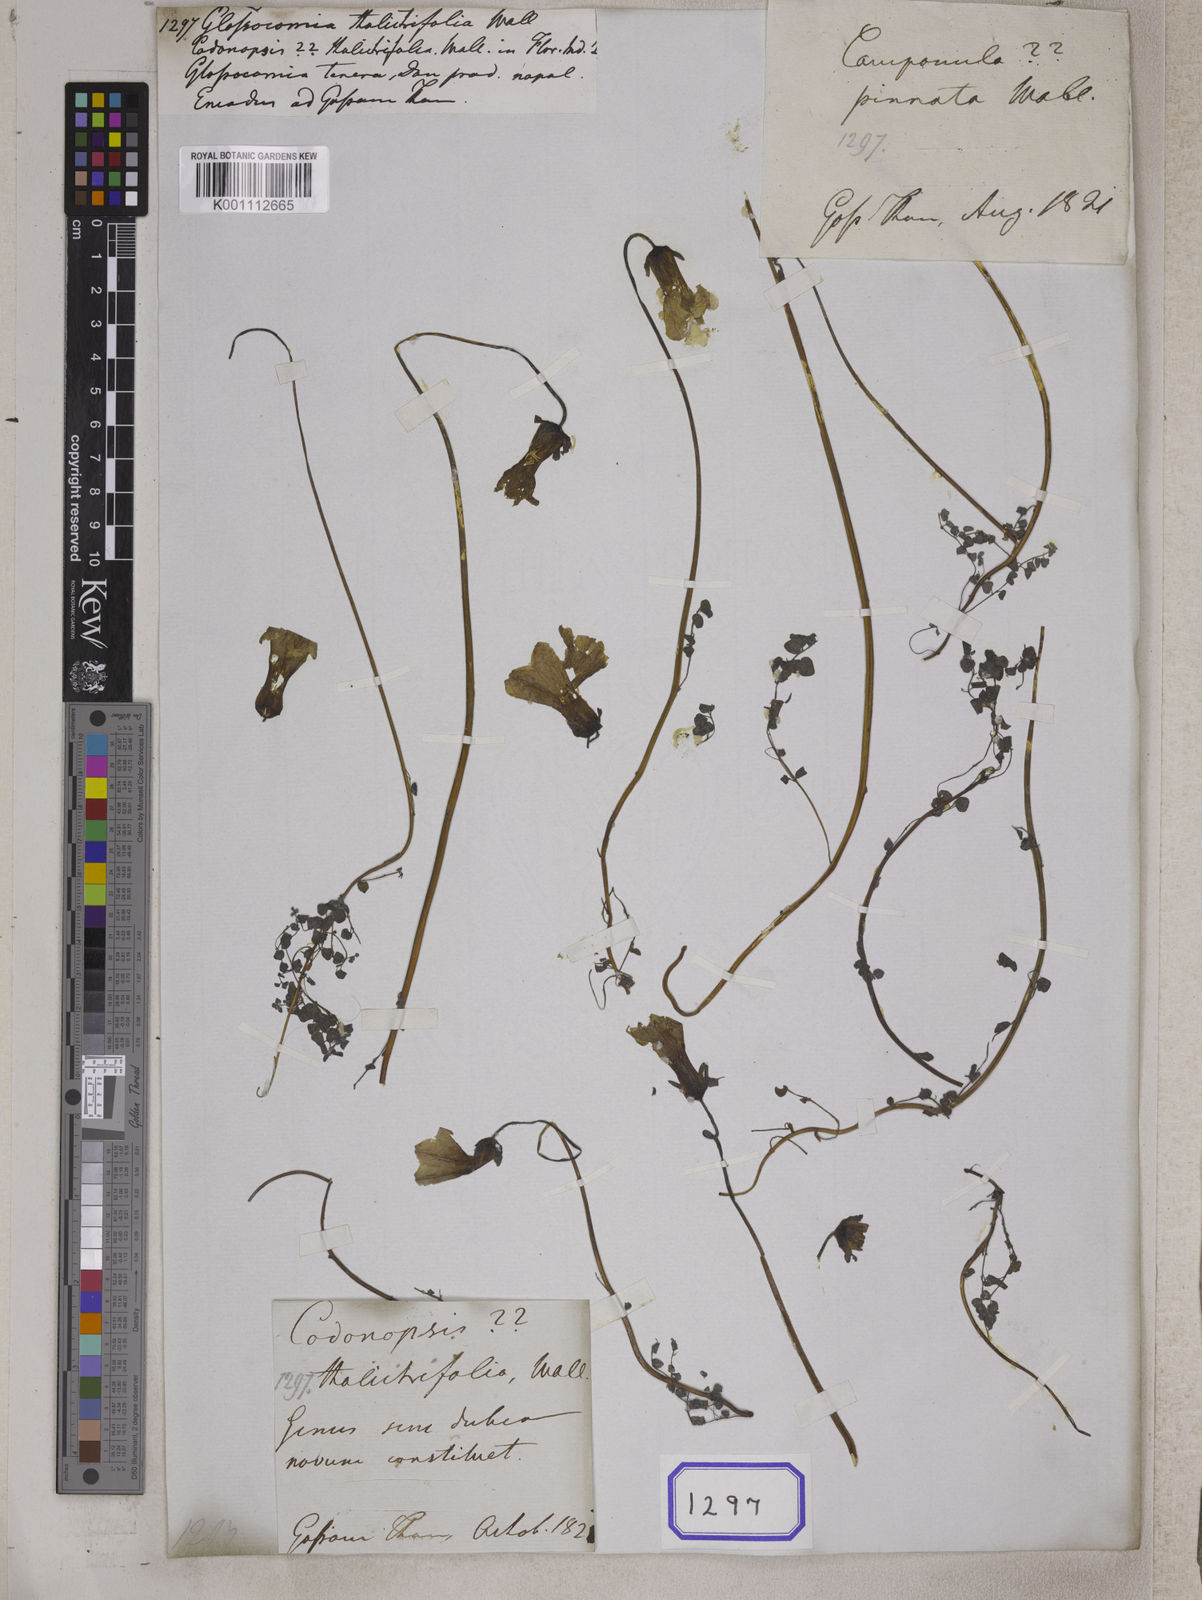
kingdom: Plantae
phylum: Tracheophyta
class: Magnoliopsida
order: Asterales
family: Campanulaceae
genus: Codonopsis
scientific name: Codonopsis thalictrifolia
